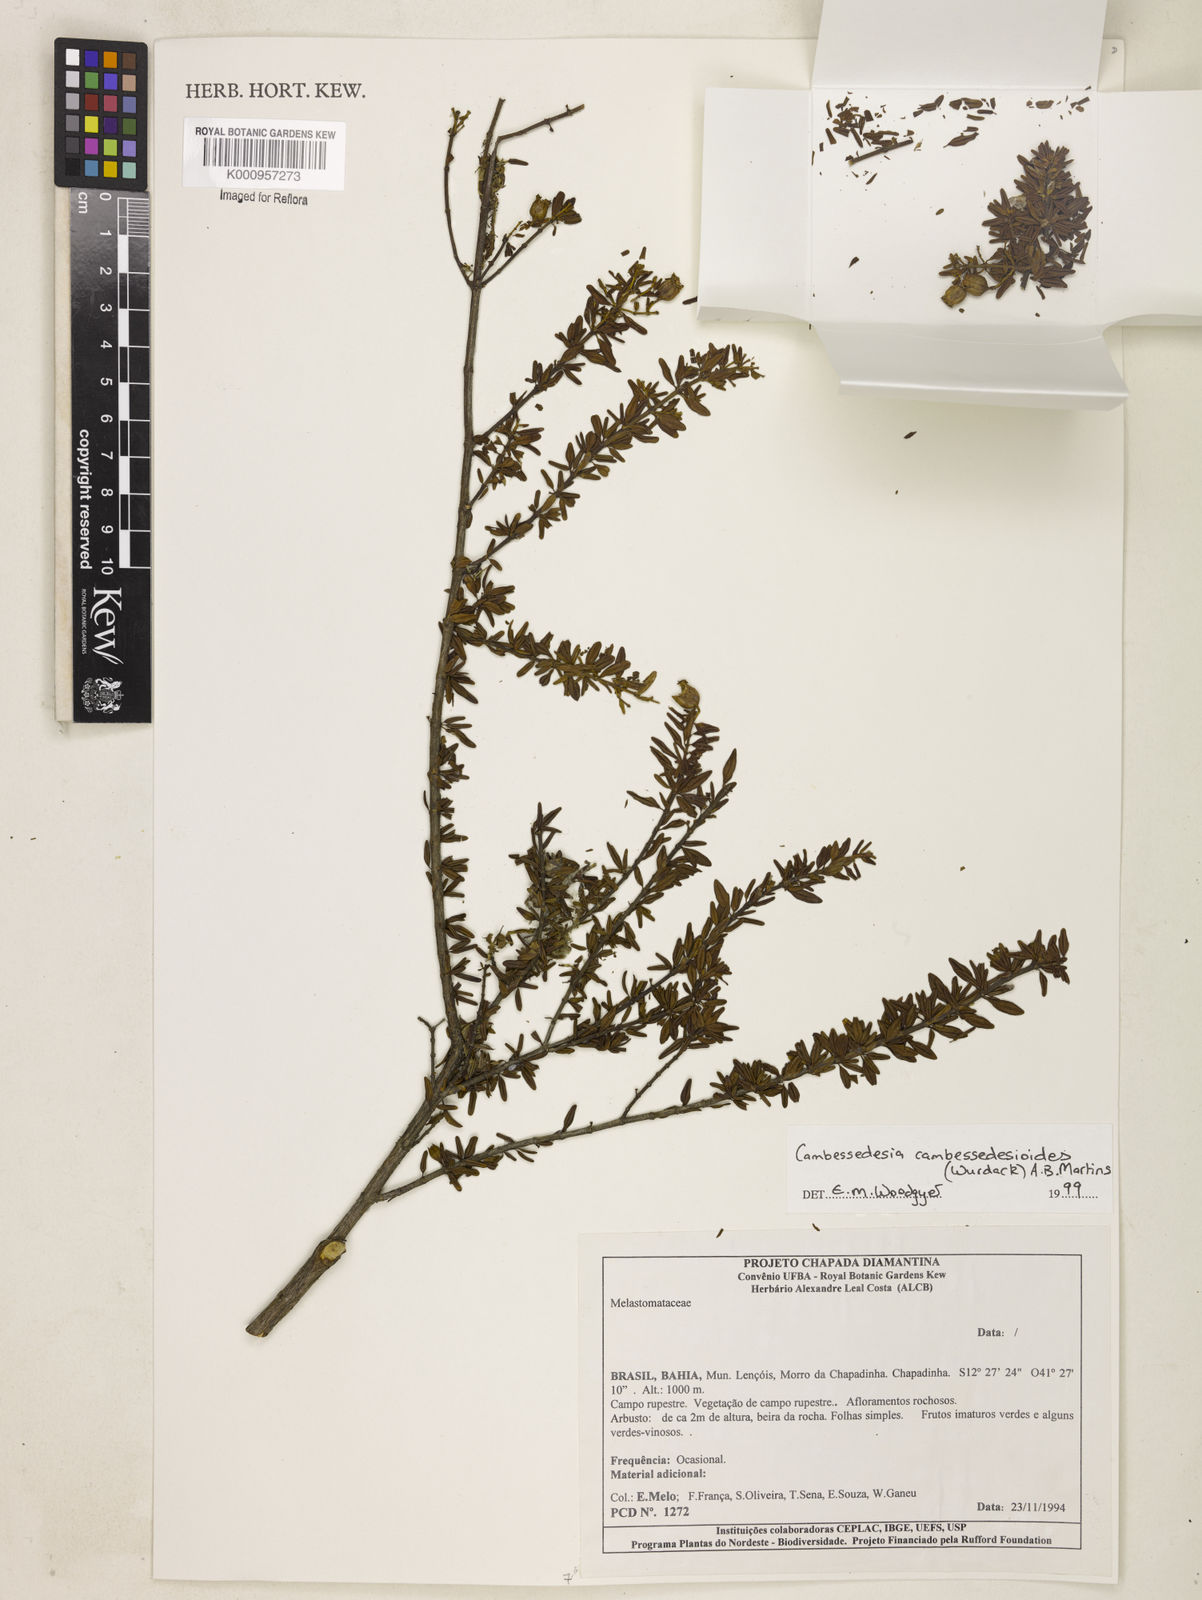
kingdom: Plantae
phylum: Tracheophyta
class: Magnoliopsida
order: Myrtales
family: Melastomataceae
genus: Cambessedesia
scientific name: Cambessedesia cambessedesioides
